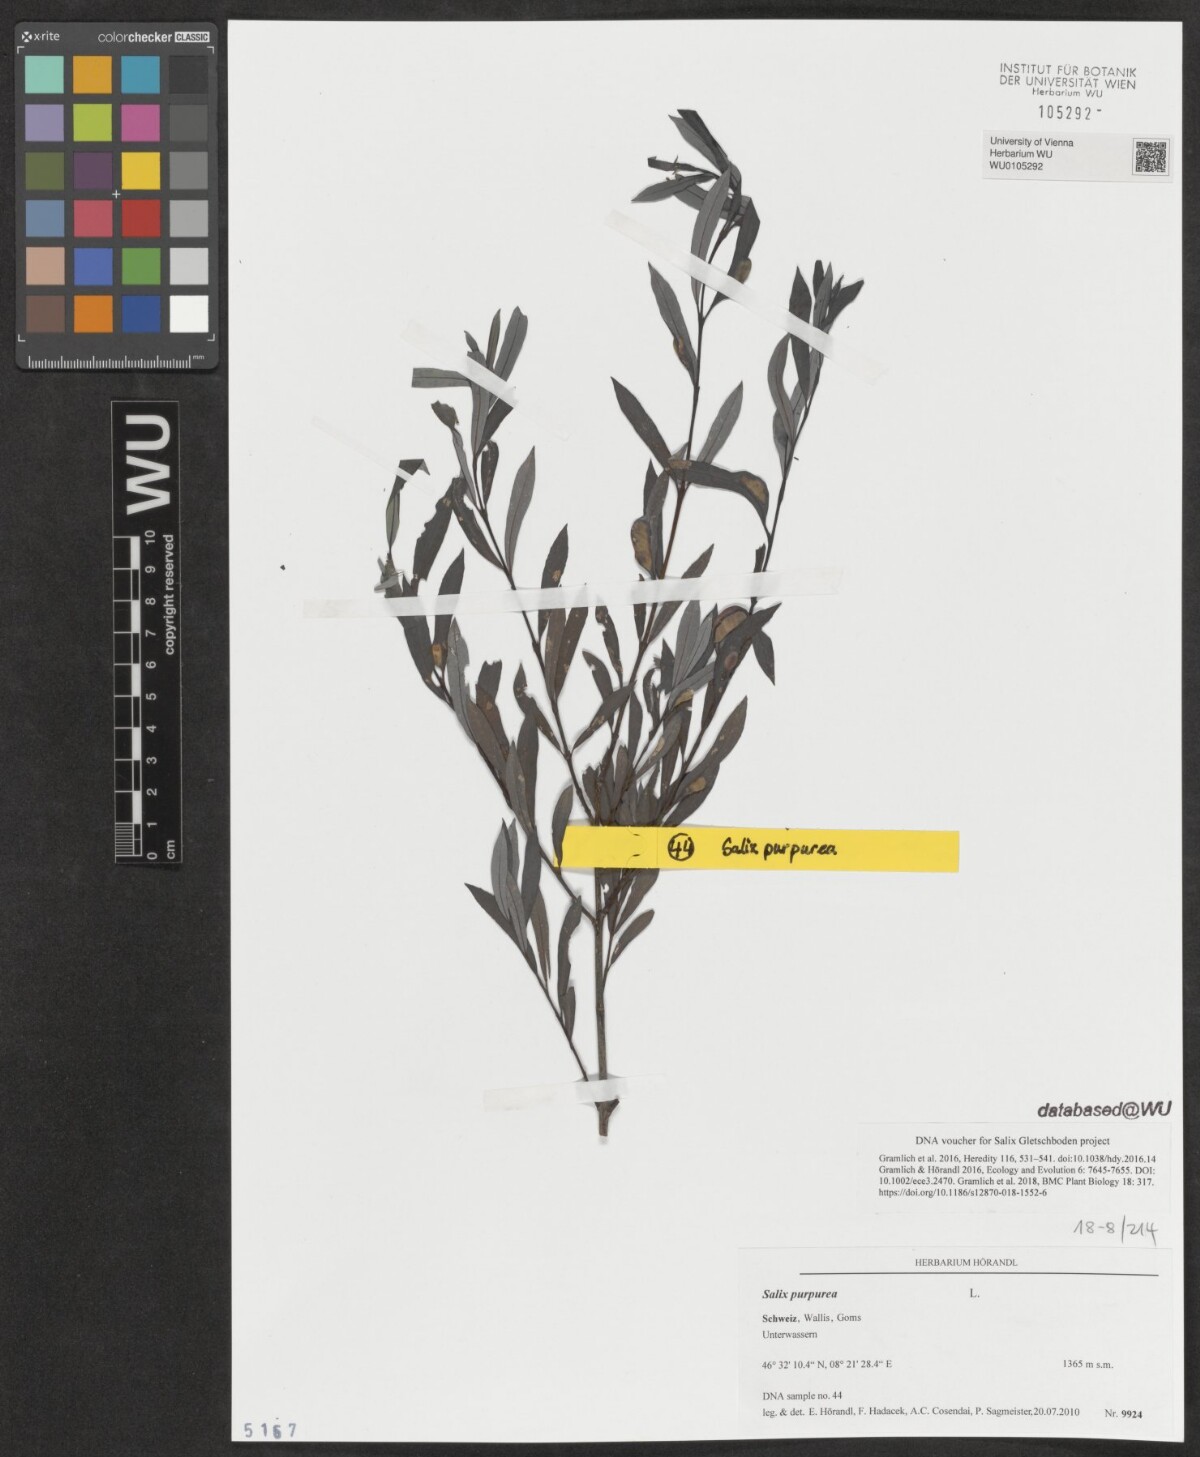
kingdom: Plantae
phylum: Tracheophyta
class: Magnoliopsida
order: Malpighiales
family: Salicaceae
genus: Salix
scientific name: Salix purpurea
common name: Purple willow
